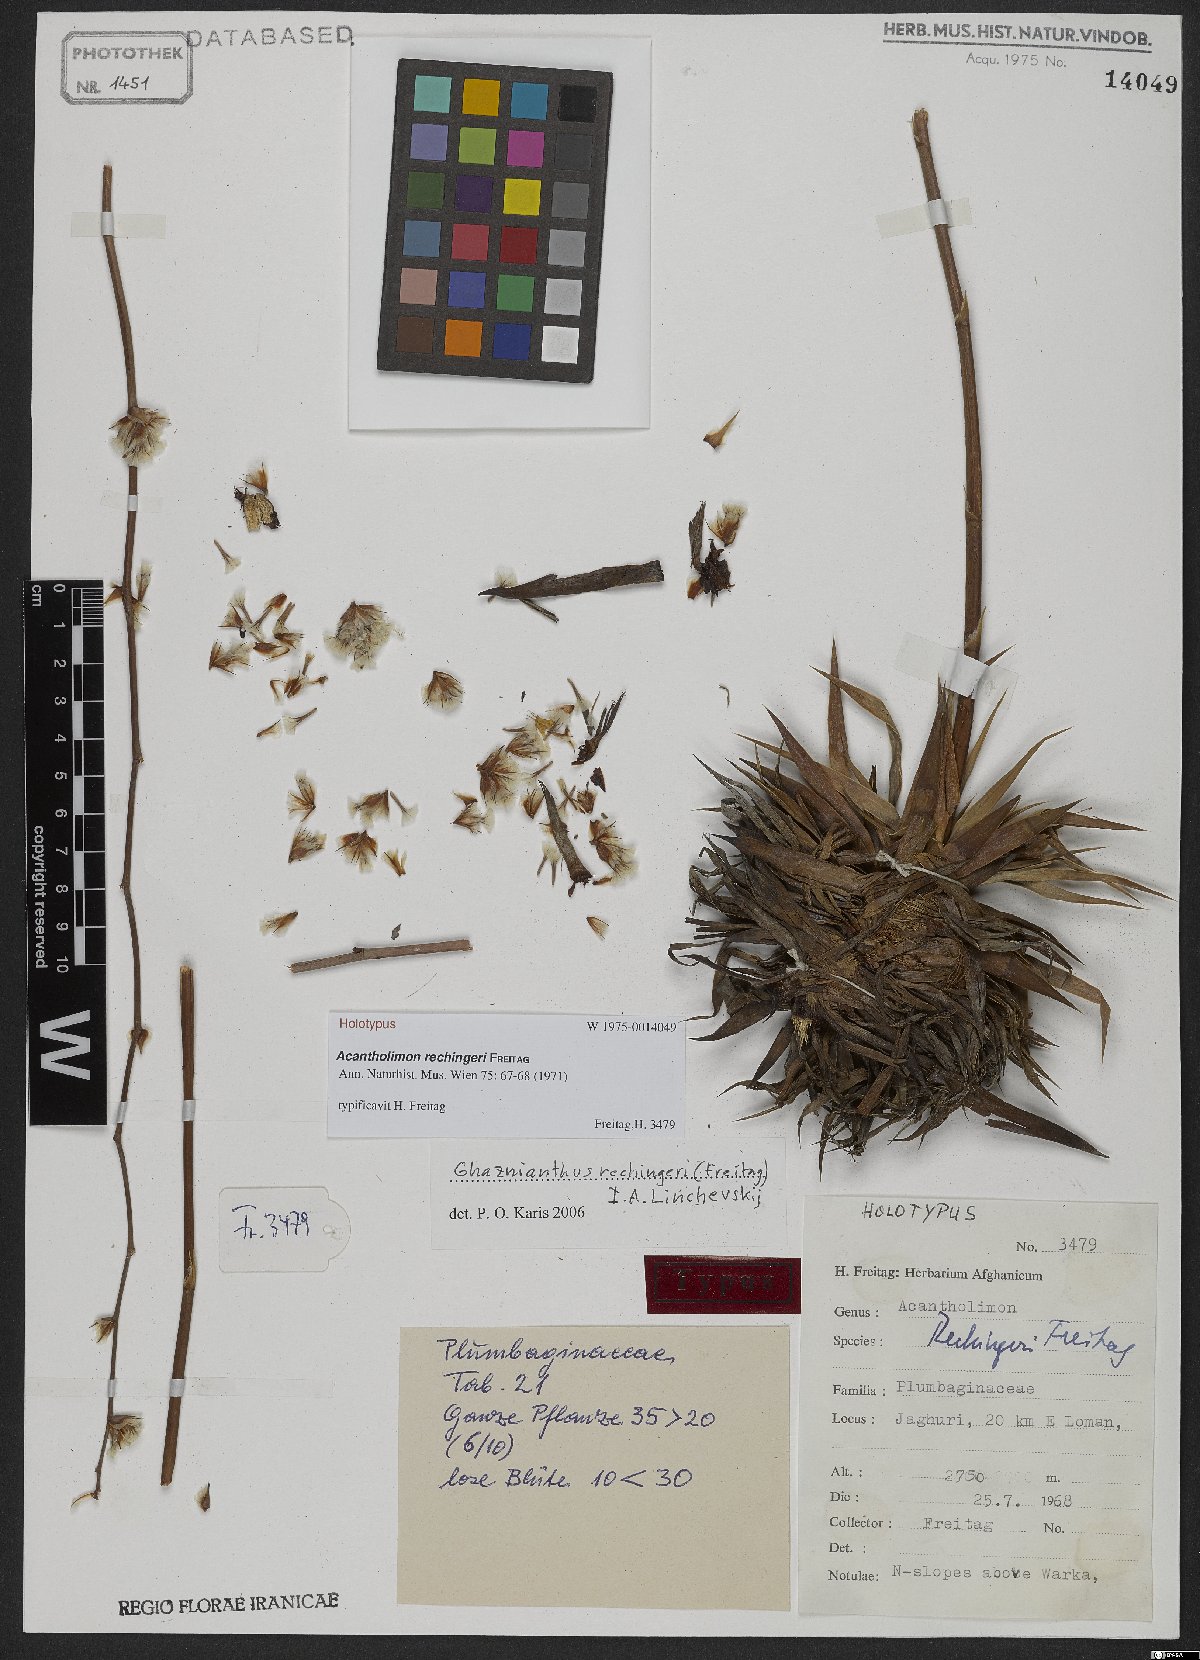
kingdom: Plantae
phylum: Tracheophyta
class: Magnoliopsida
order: Caryophyllales
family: Plumbaginaceae
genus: Acantholimon
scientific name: Acantholimon rechingeri
